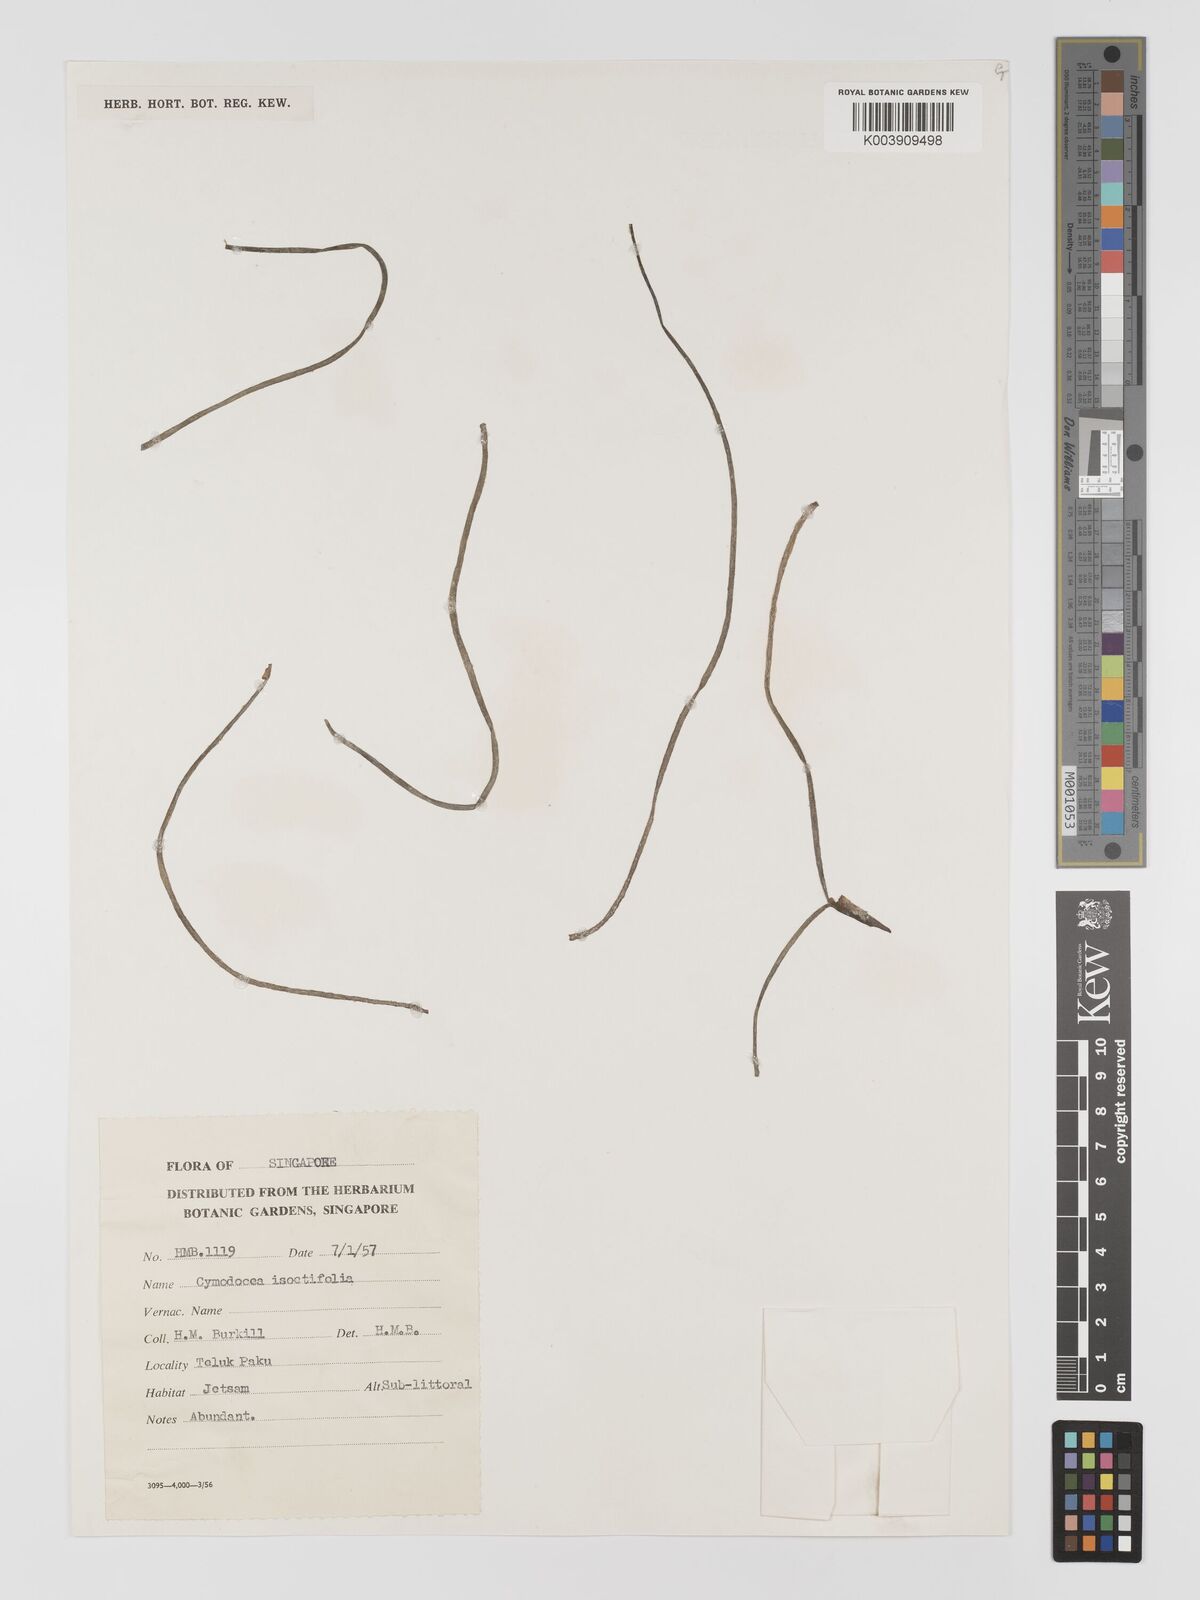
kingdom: Plantae
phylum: Tracheophyta
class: Liliopsida
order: Alismatales
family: Cymodoceaceae
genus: Syringodium
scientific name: Syringodium isoetifolium
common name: Species code: si
